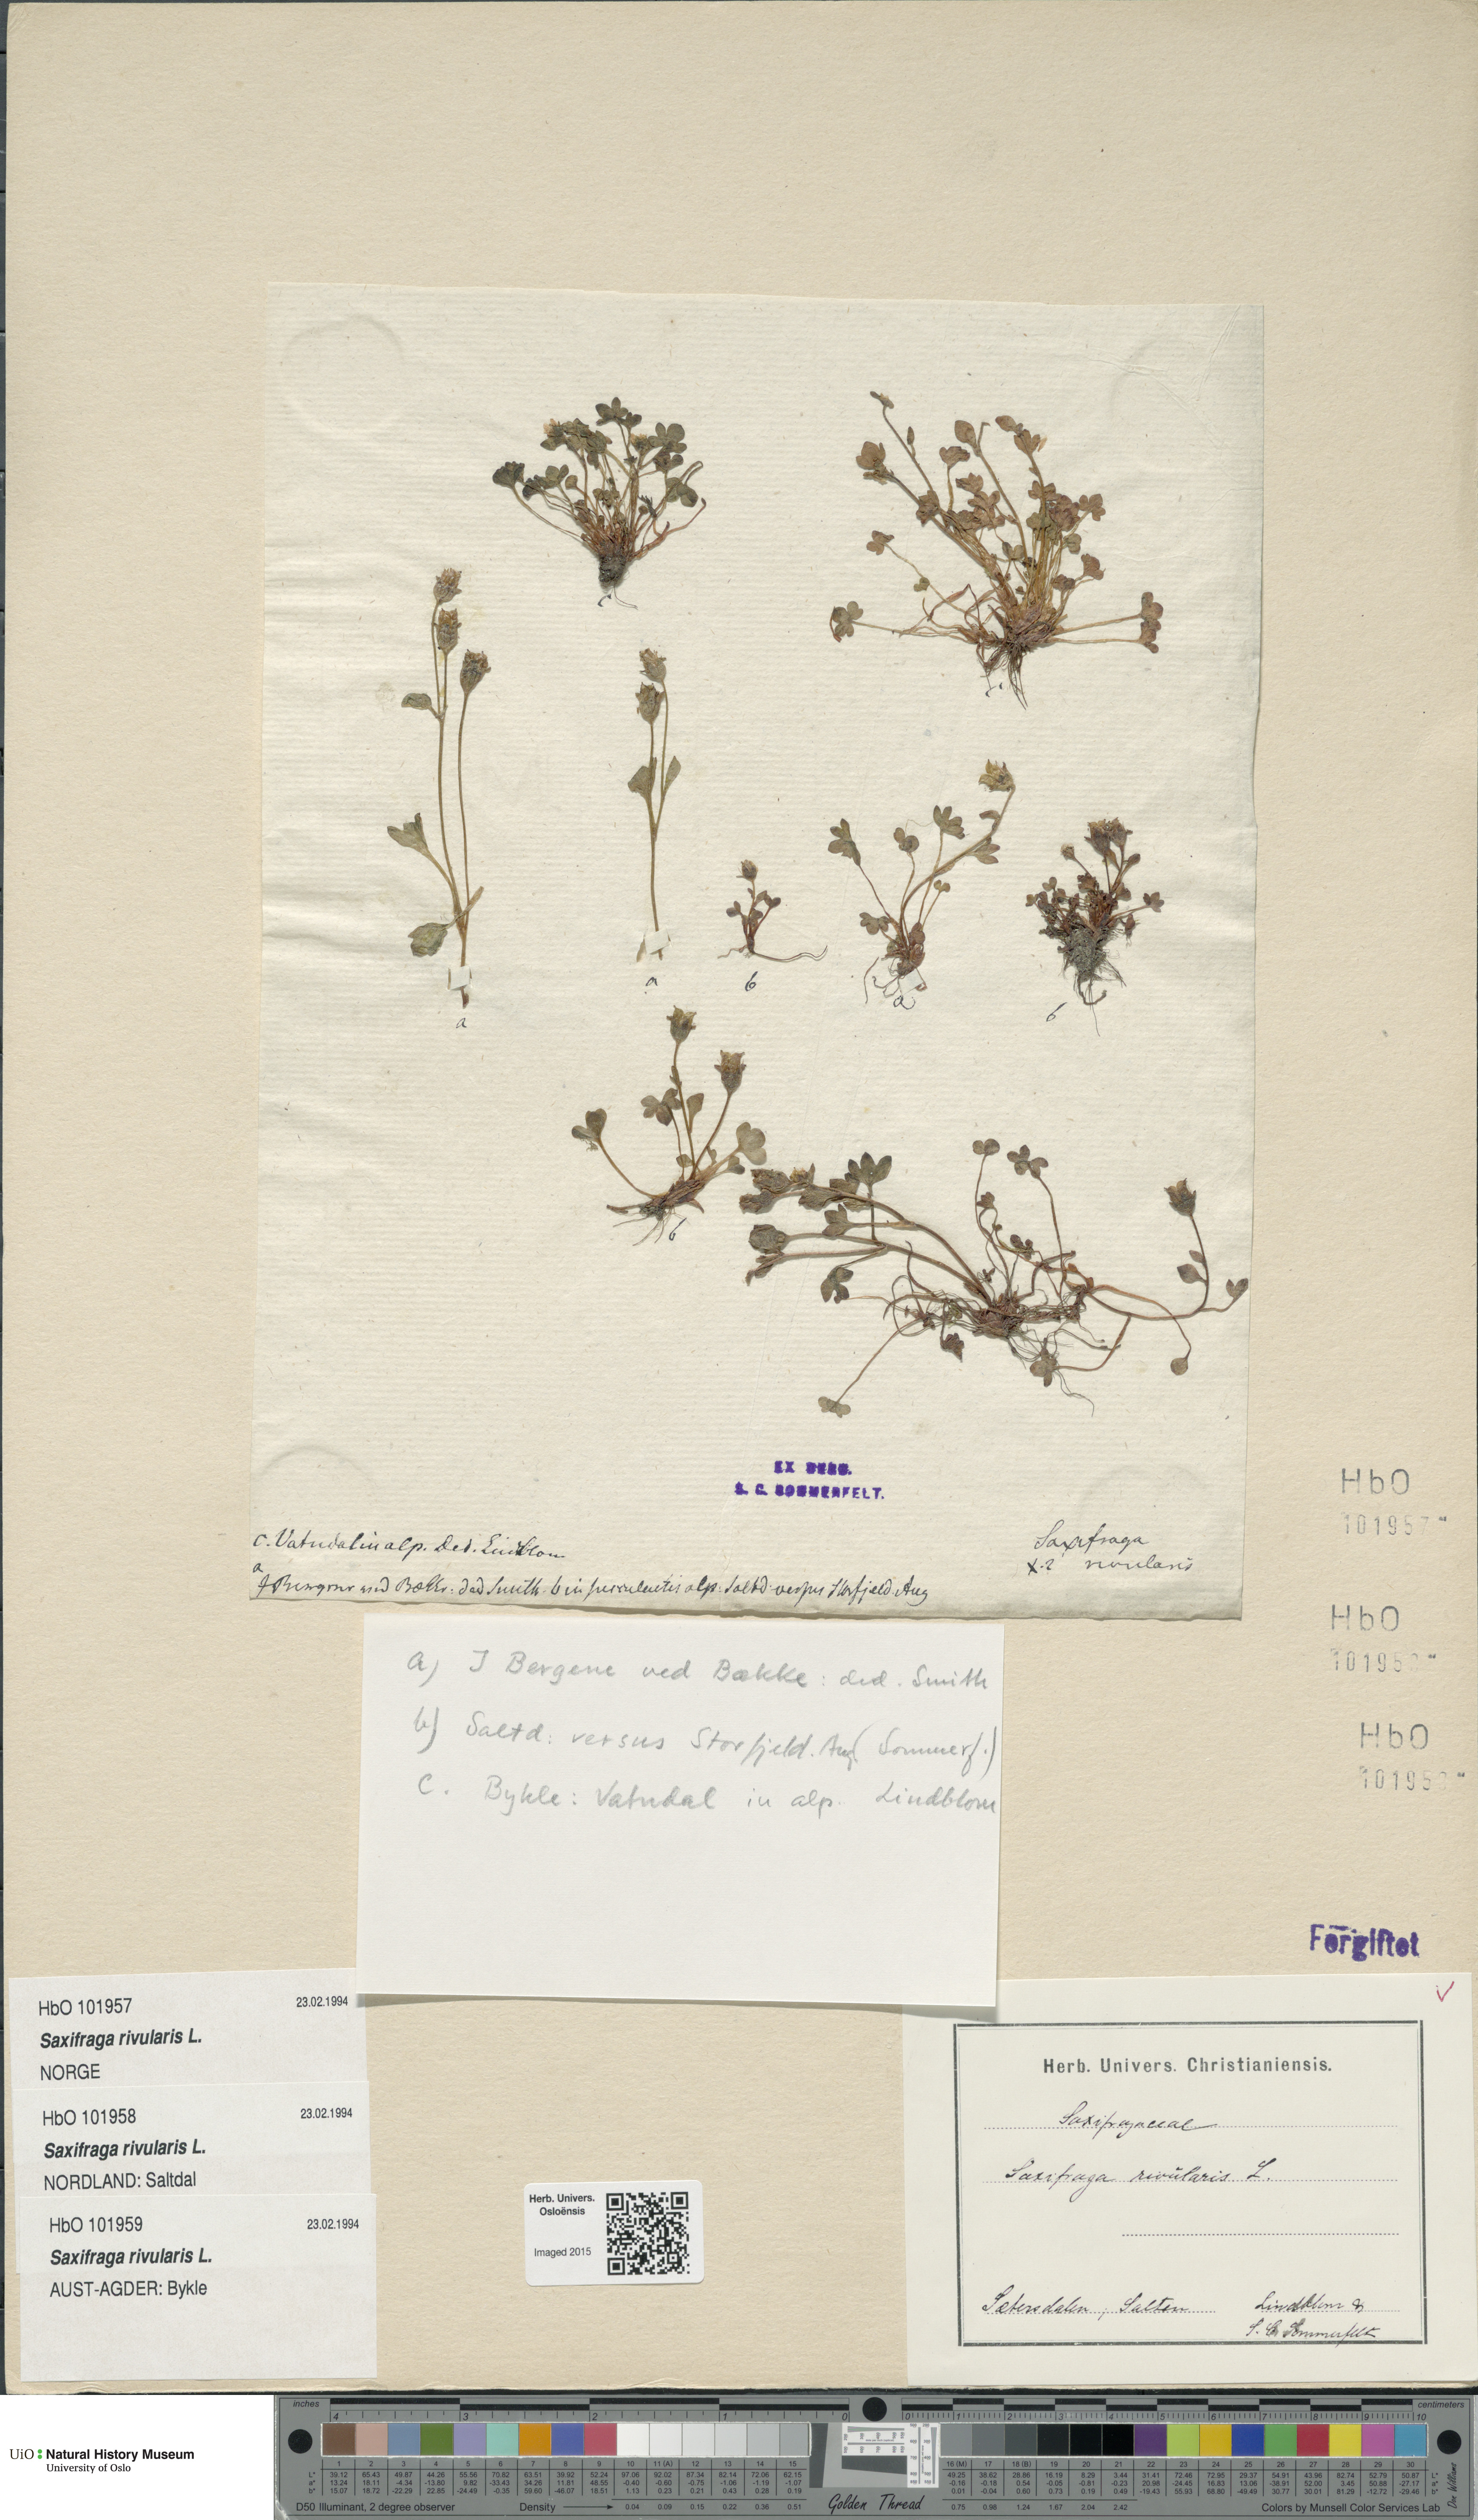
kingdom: Plantae
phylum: Tracheophyta
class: Magnoliopsida
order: Saxifragales
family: Saxifragaceae
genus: Saxifraga
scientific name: Saxifraga rivularis
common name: Highland saxifrage
